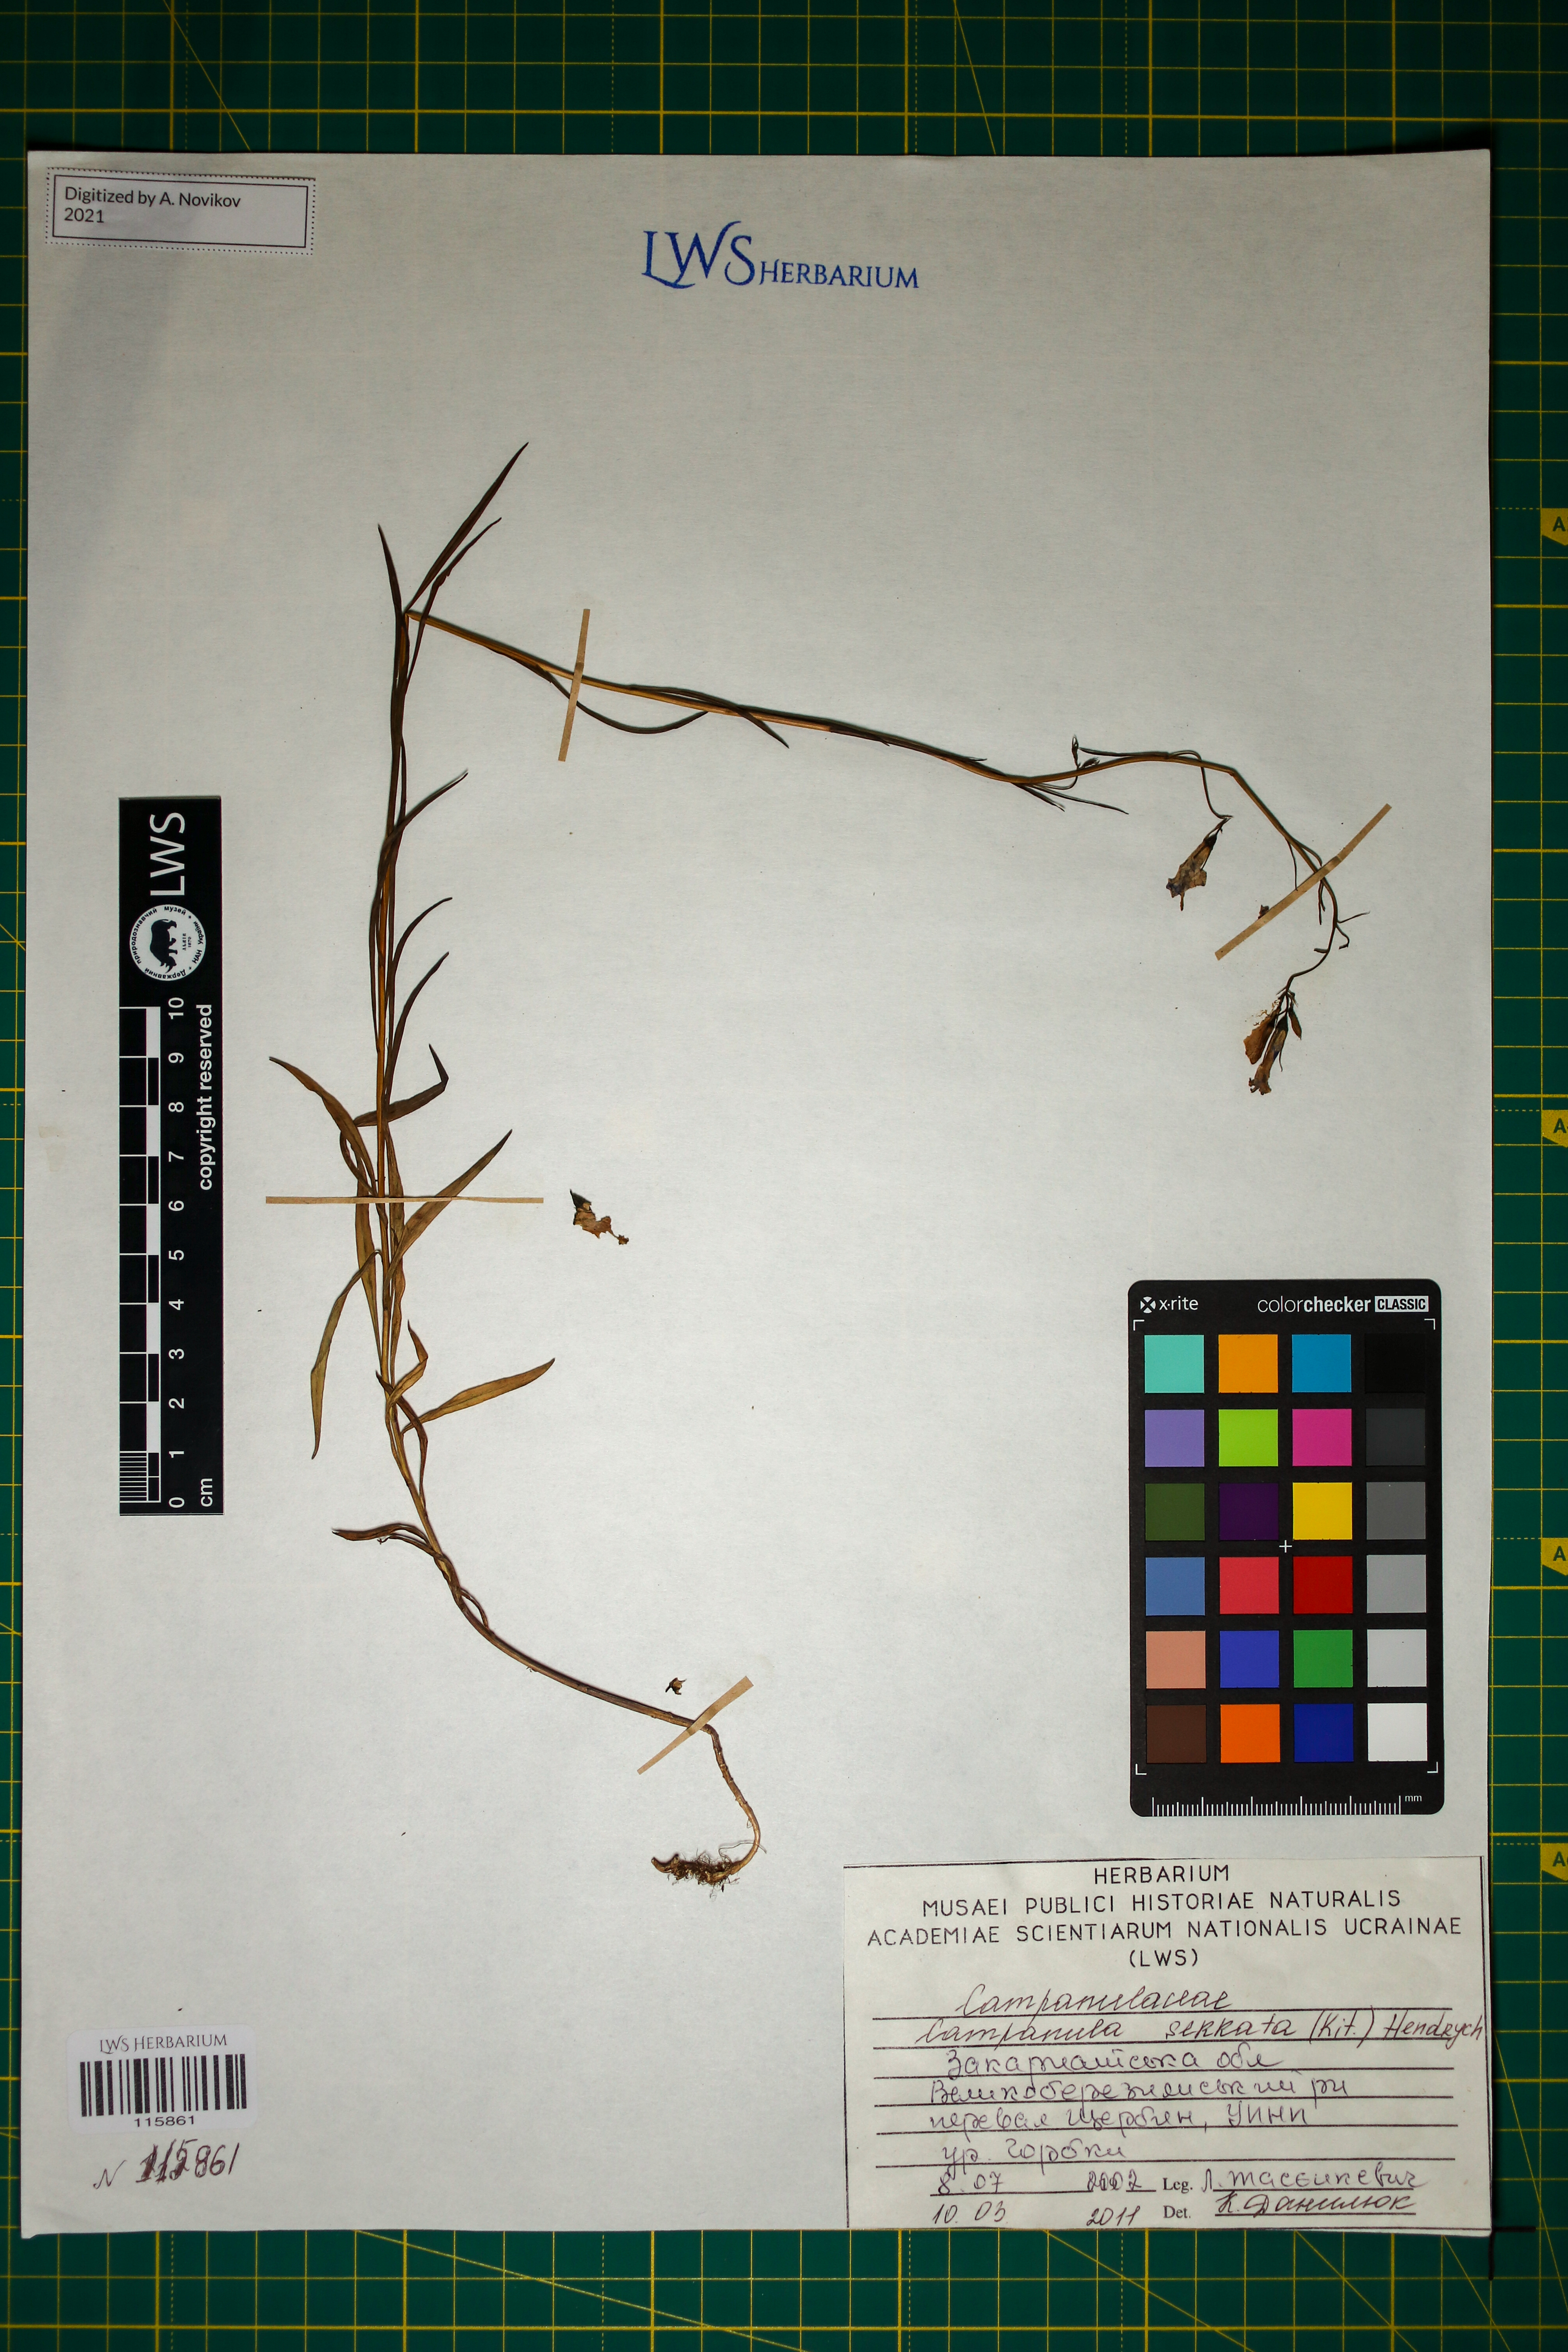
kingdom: Plantae
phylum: Tracheophyta
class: Magnoliopsida
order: Asterales
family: Campanulaceae
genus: Campanula
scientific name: Campanula serrata
